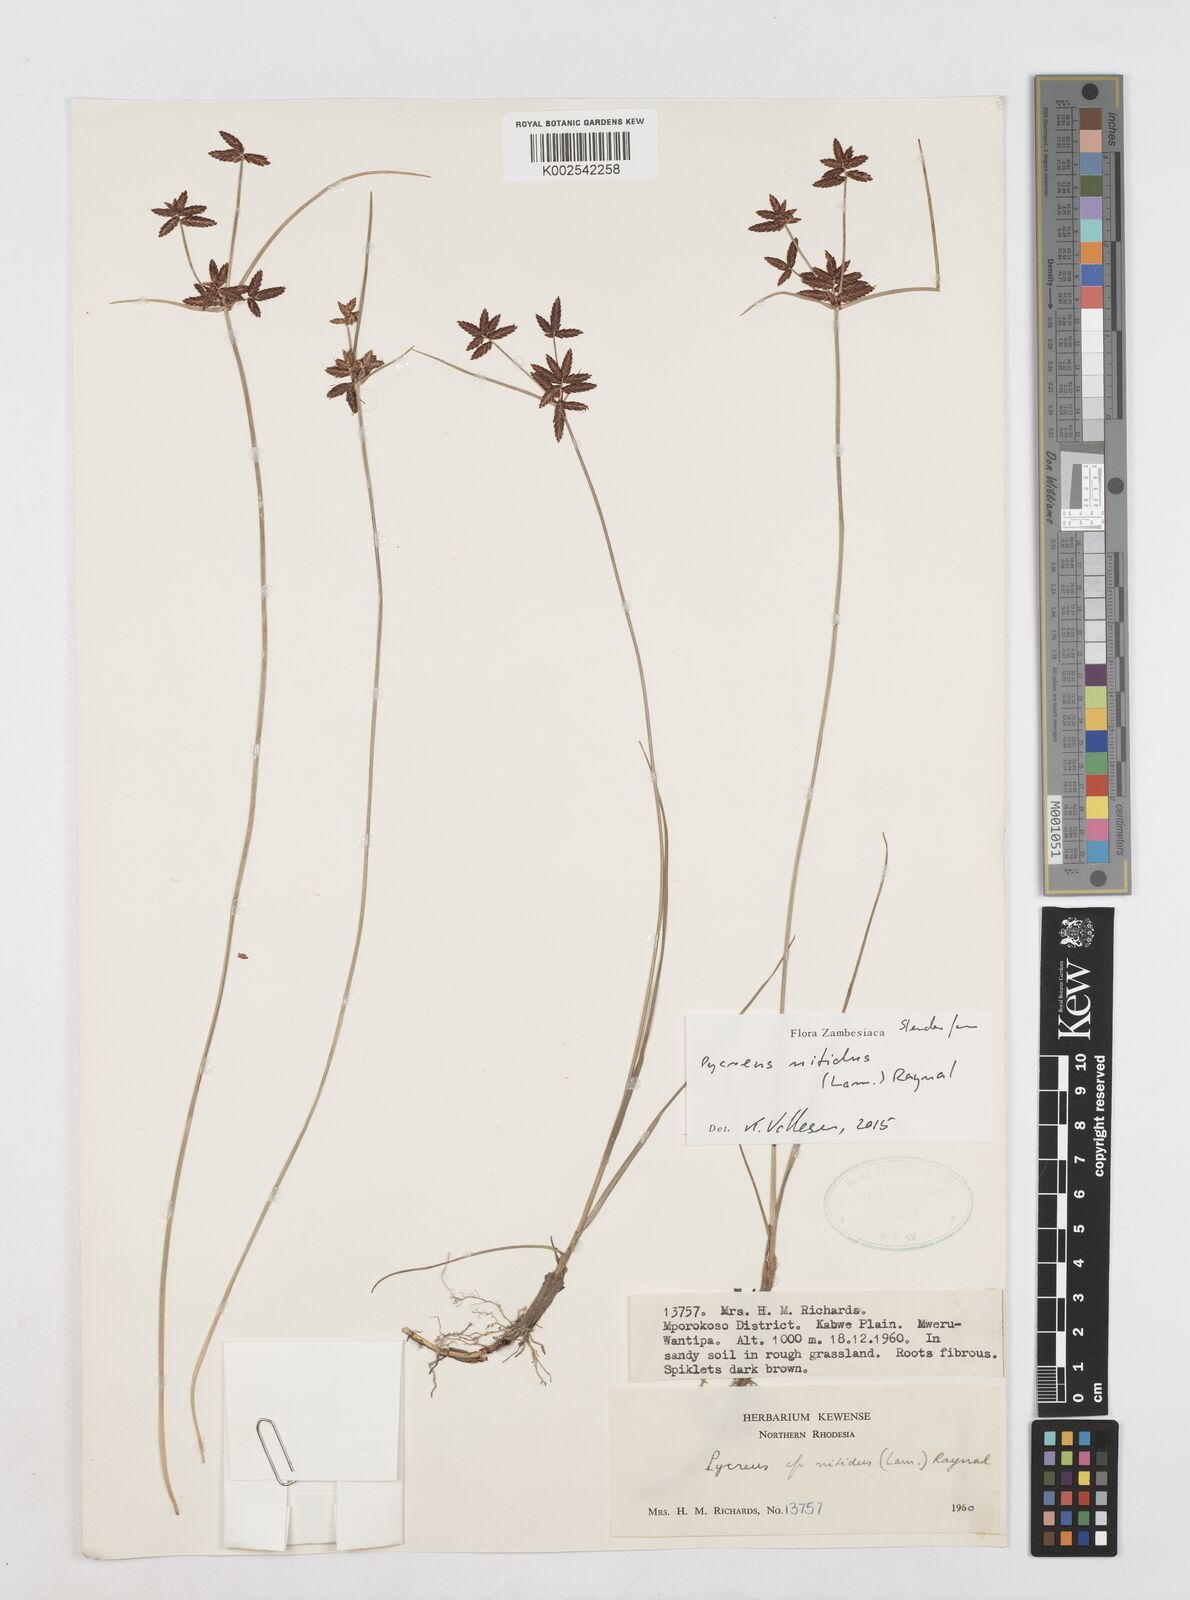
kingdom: Plantae
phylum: Tracheophyta
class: Liliopsida
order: Poales
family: Cyperaceae
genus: Cyperus
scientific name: Cyperus nitidus
